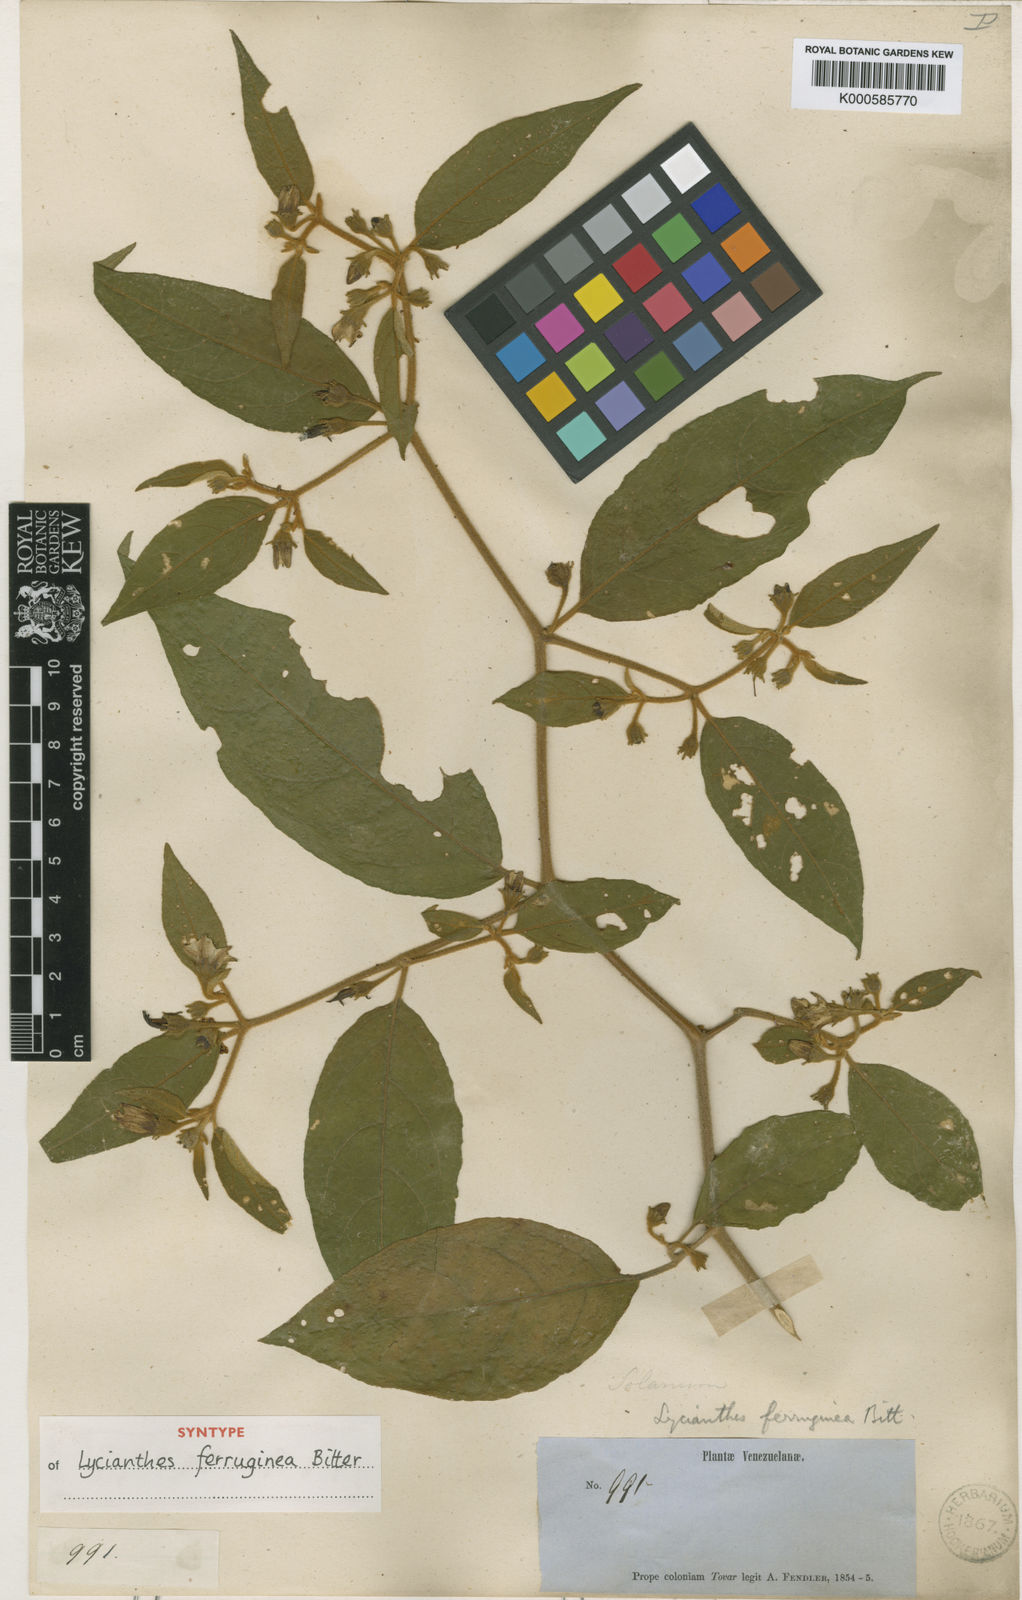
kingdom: Plantae
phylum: Tracheophyta
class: Magnoliopsida
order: Solanales
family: Solanaceae
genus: Lycianthes
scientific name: Lycianthes ferruginea
